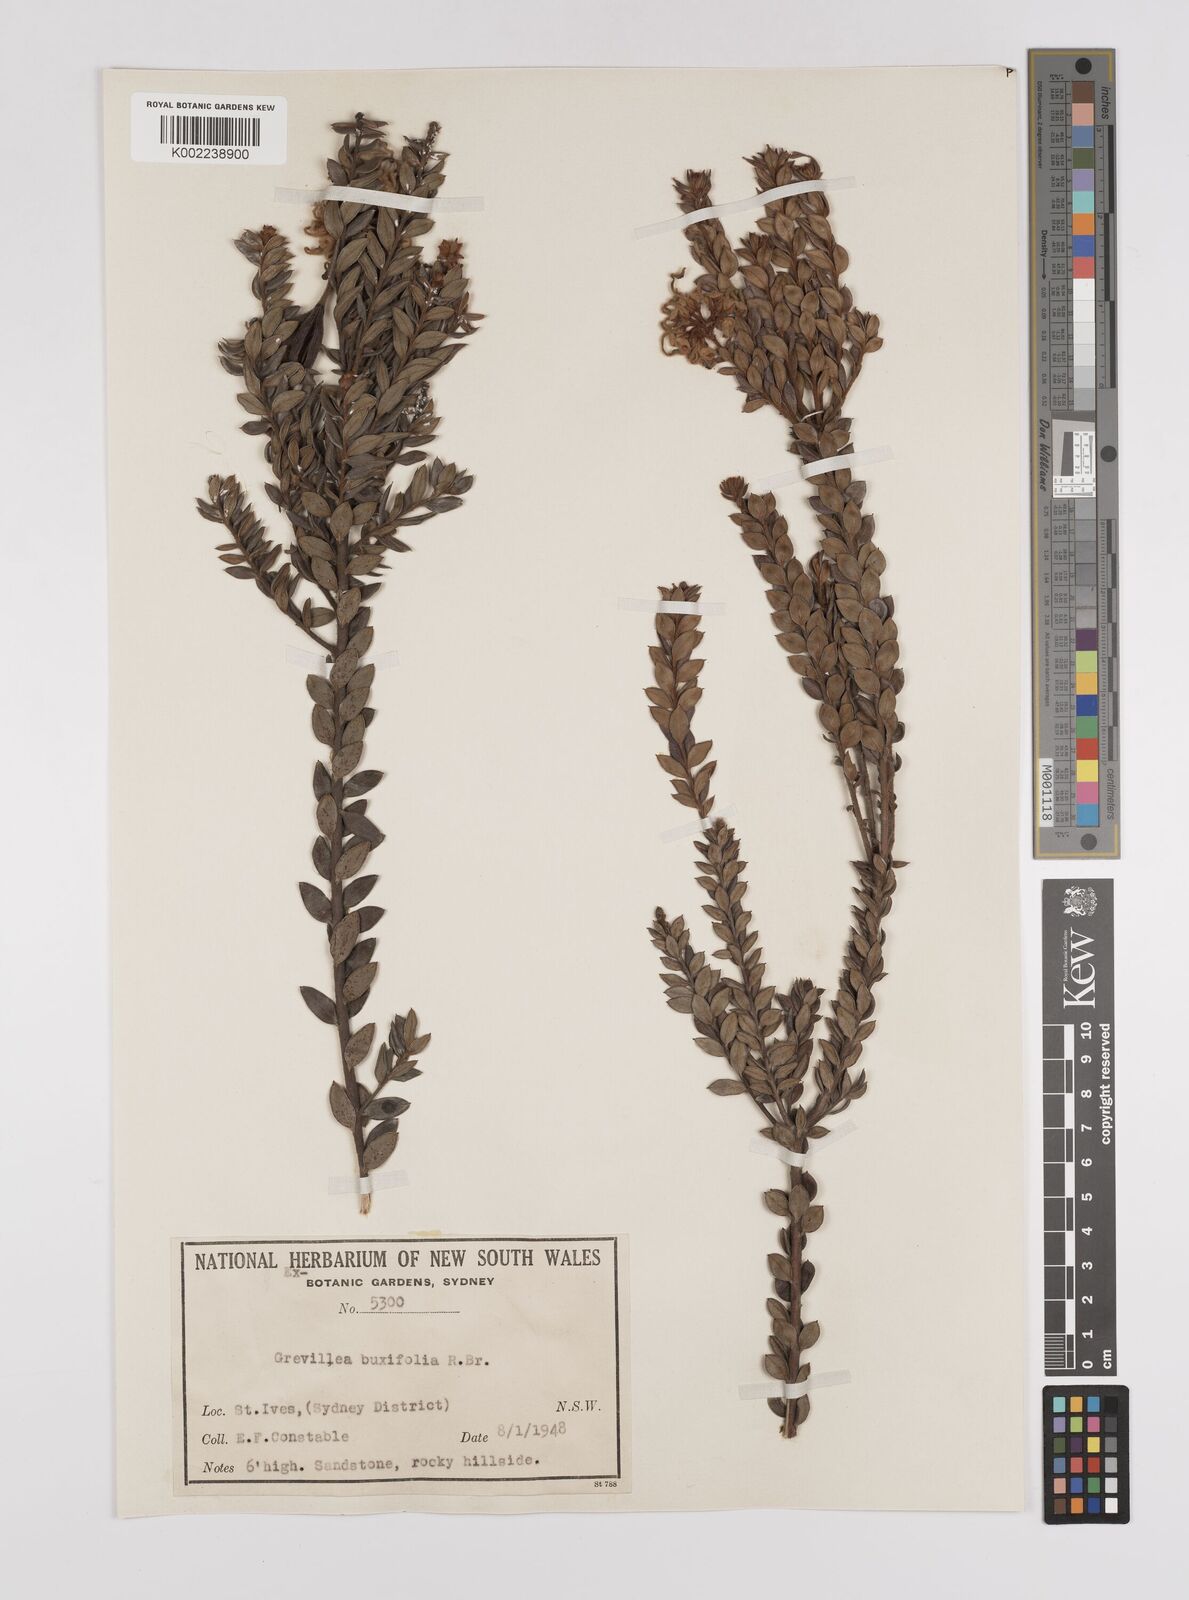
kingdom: Plantae
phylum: Tracheophyta
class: Magnoliopsida
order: Proteales
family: Proteaceae
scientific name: Proteaceae
